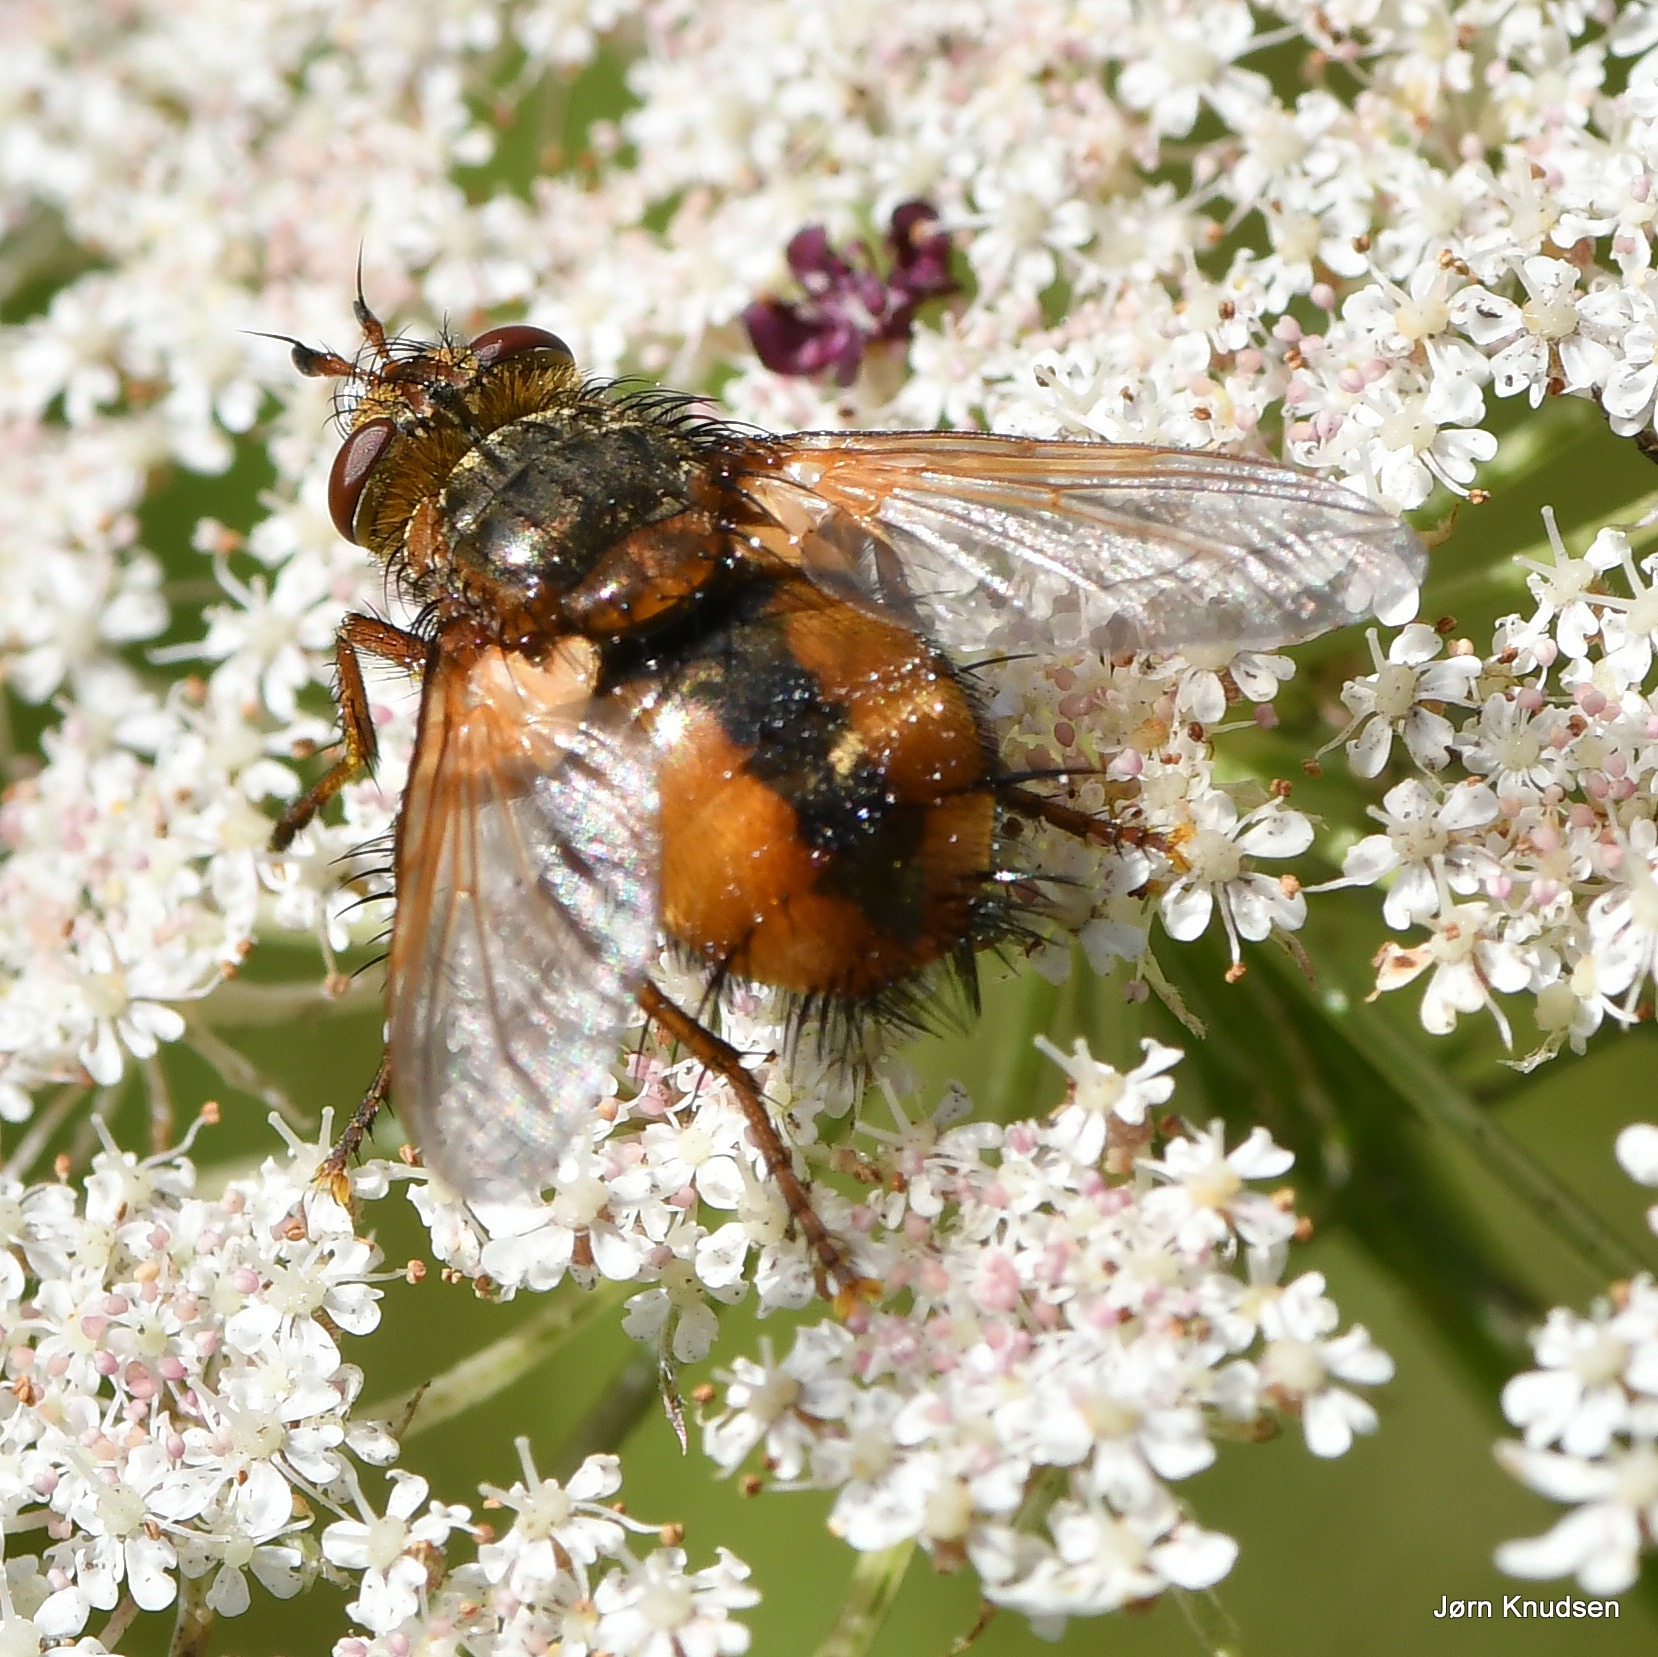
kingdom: Animalia
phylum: Arthropoda
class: Insecta
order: Diptera
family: Tachinidae
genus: Tachina
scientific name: Tachina fera
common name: Mellemfluen oskar
